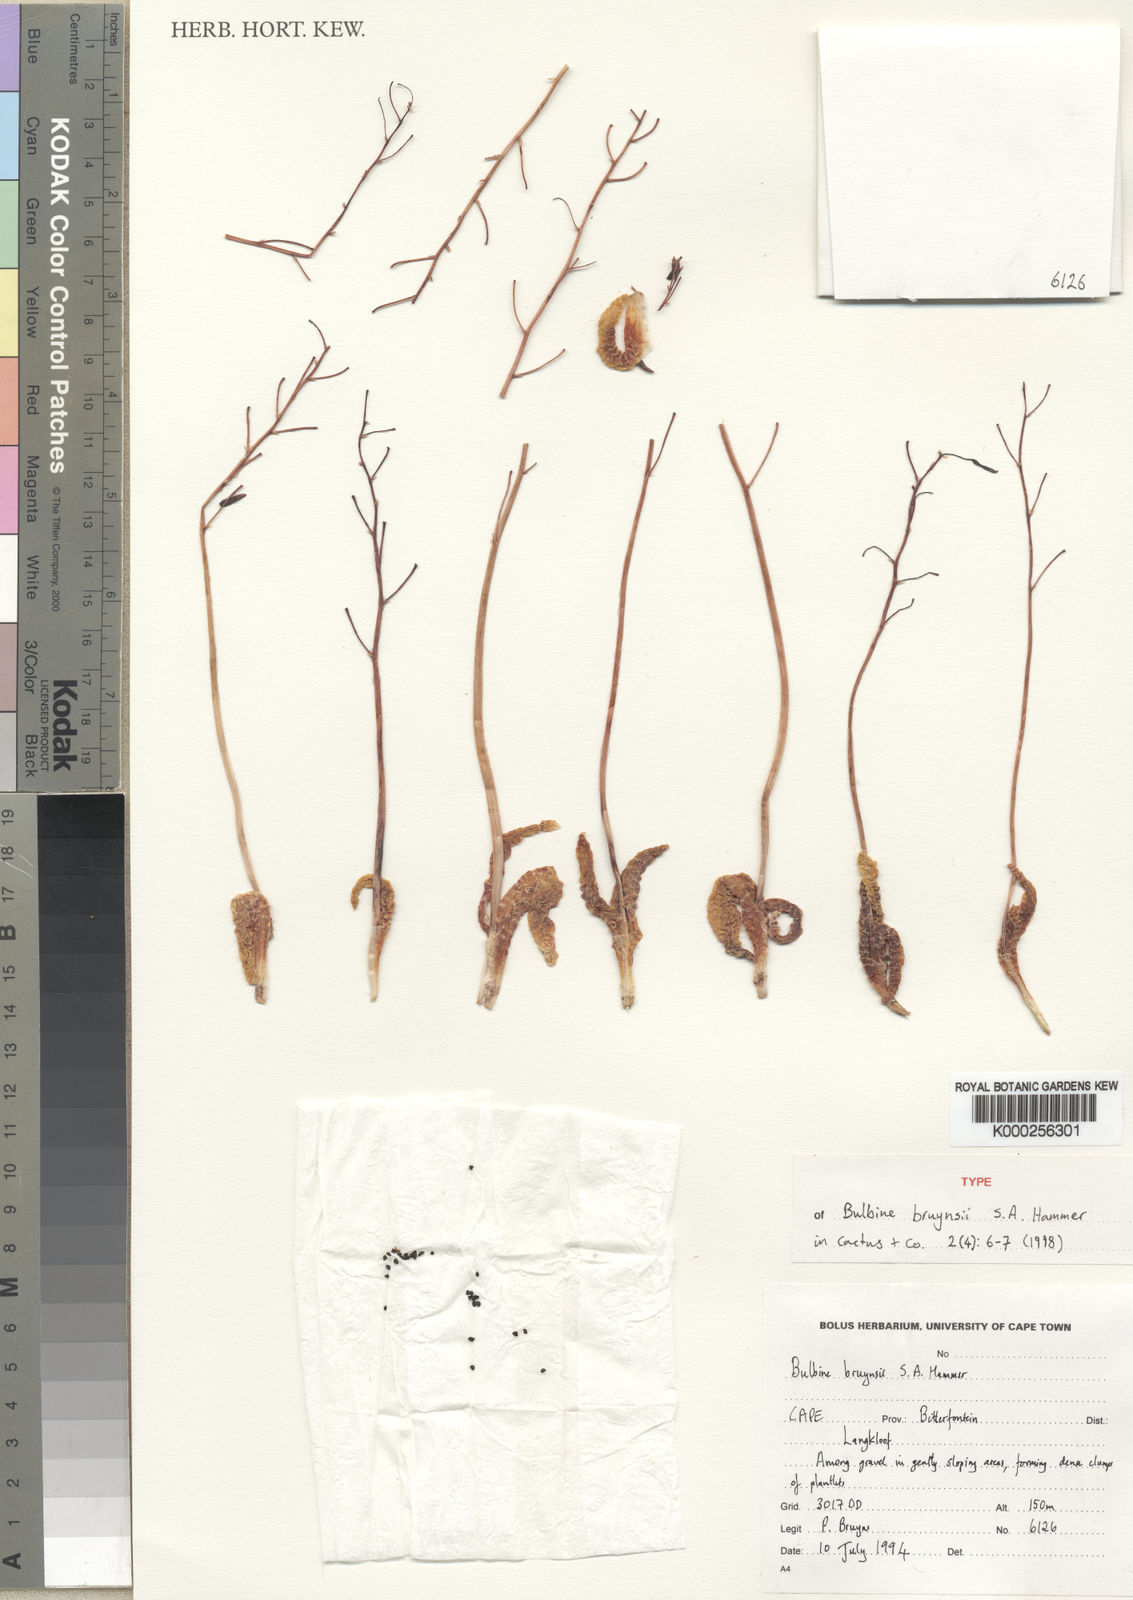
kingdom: Plantae
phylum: Tracheophyta
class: Liliopsida
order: Asparagales
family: Asphodelaceae
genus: Bulbine
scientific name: Bulbine bruynsii
